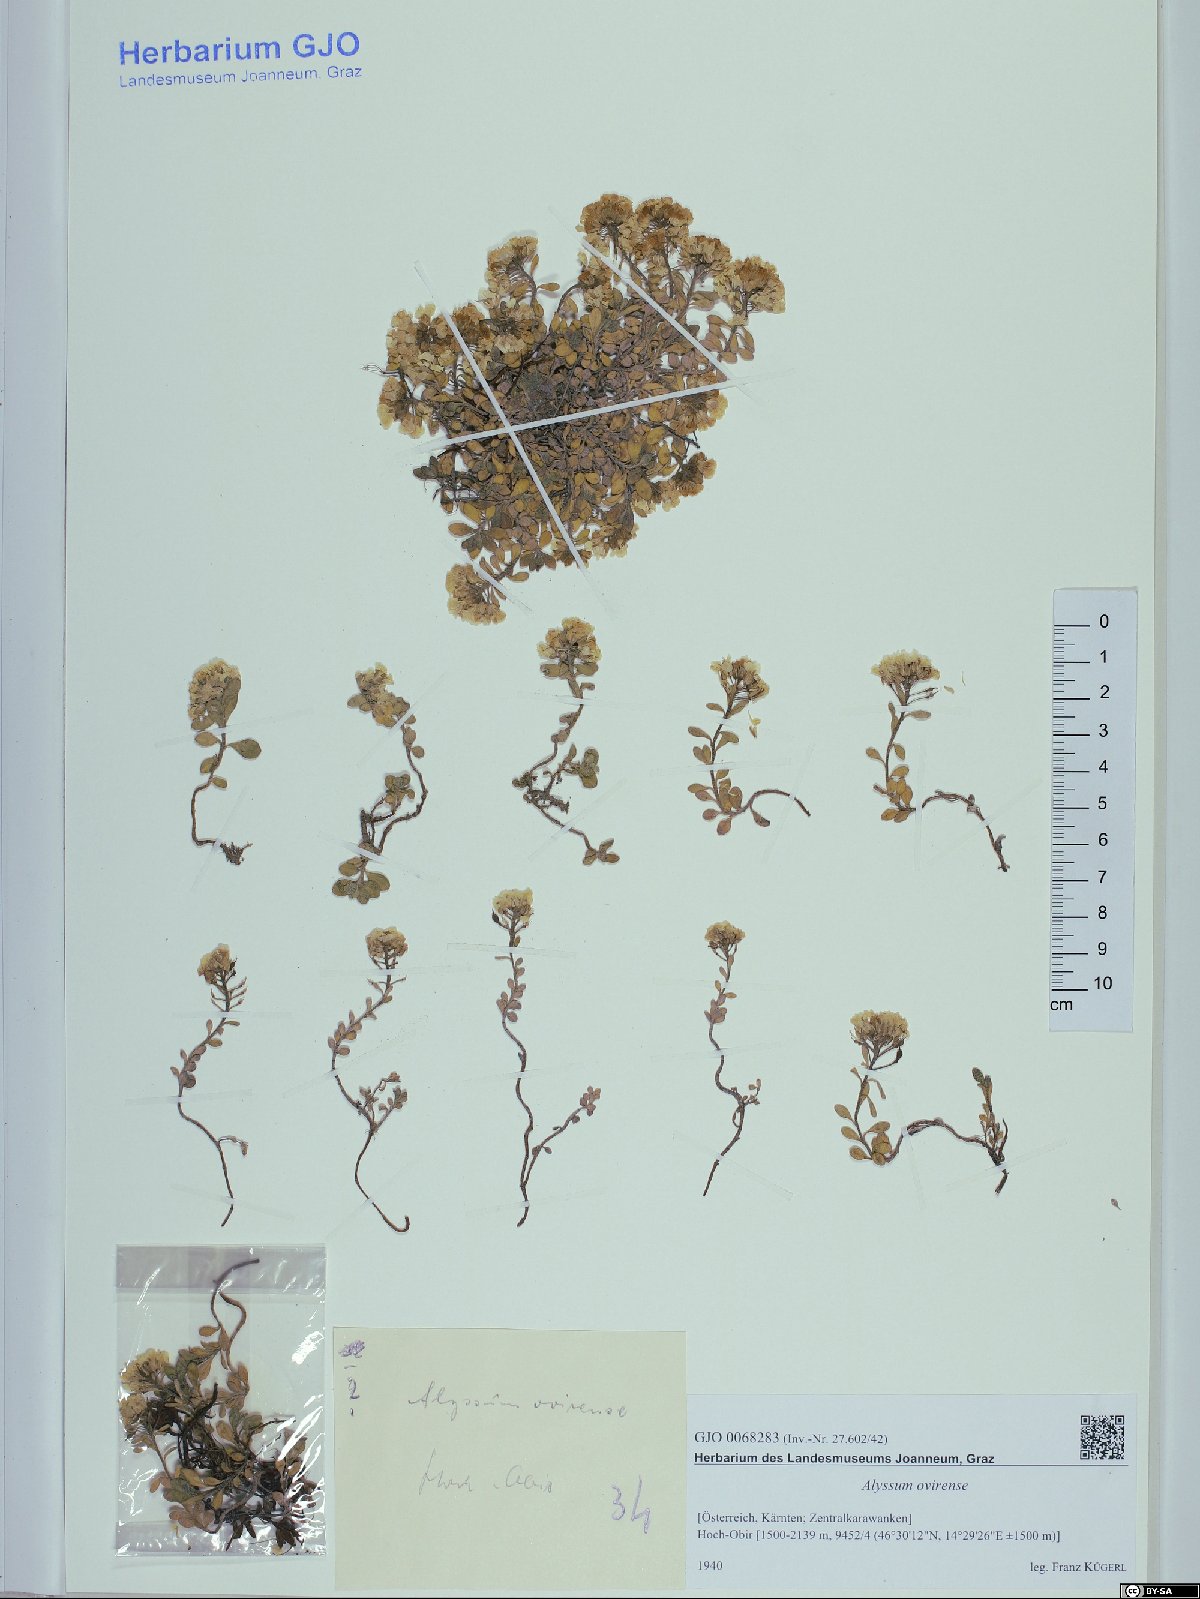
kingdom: Plantae
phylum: Tracheophyta
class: Magnoliopsida
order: Brassicales
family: Brassicaceae
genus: Alyssum
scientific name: Alyssum wulfenianum
